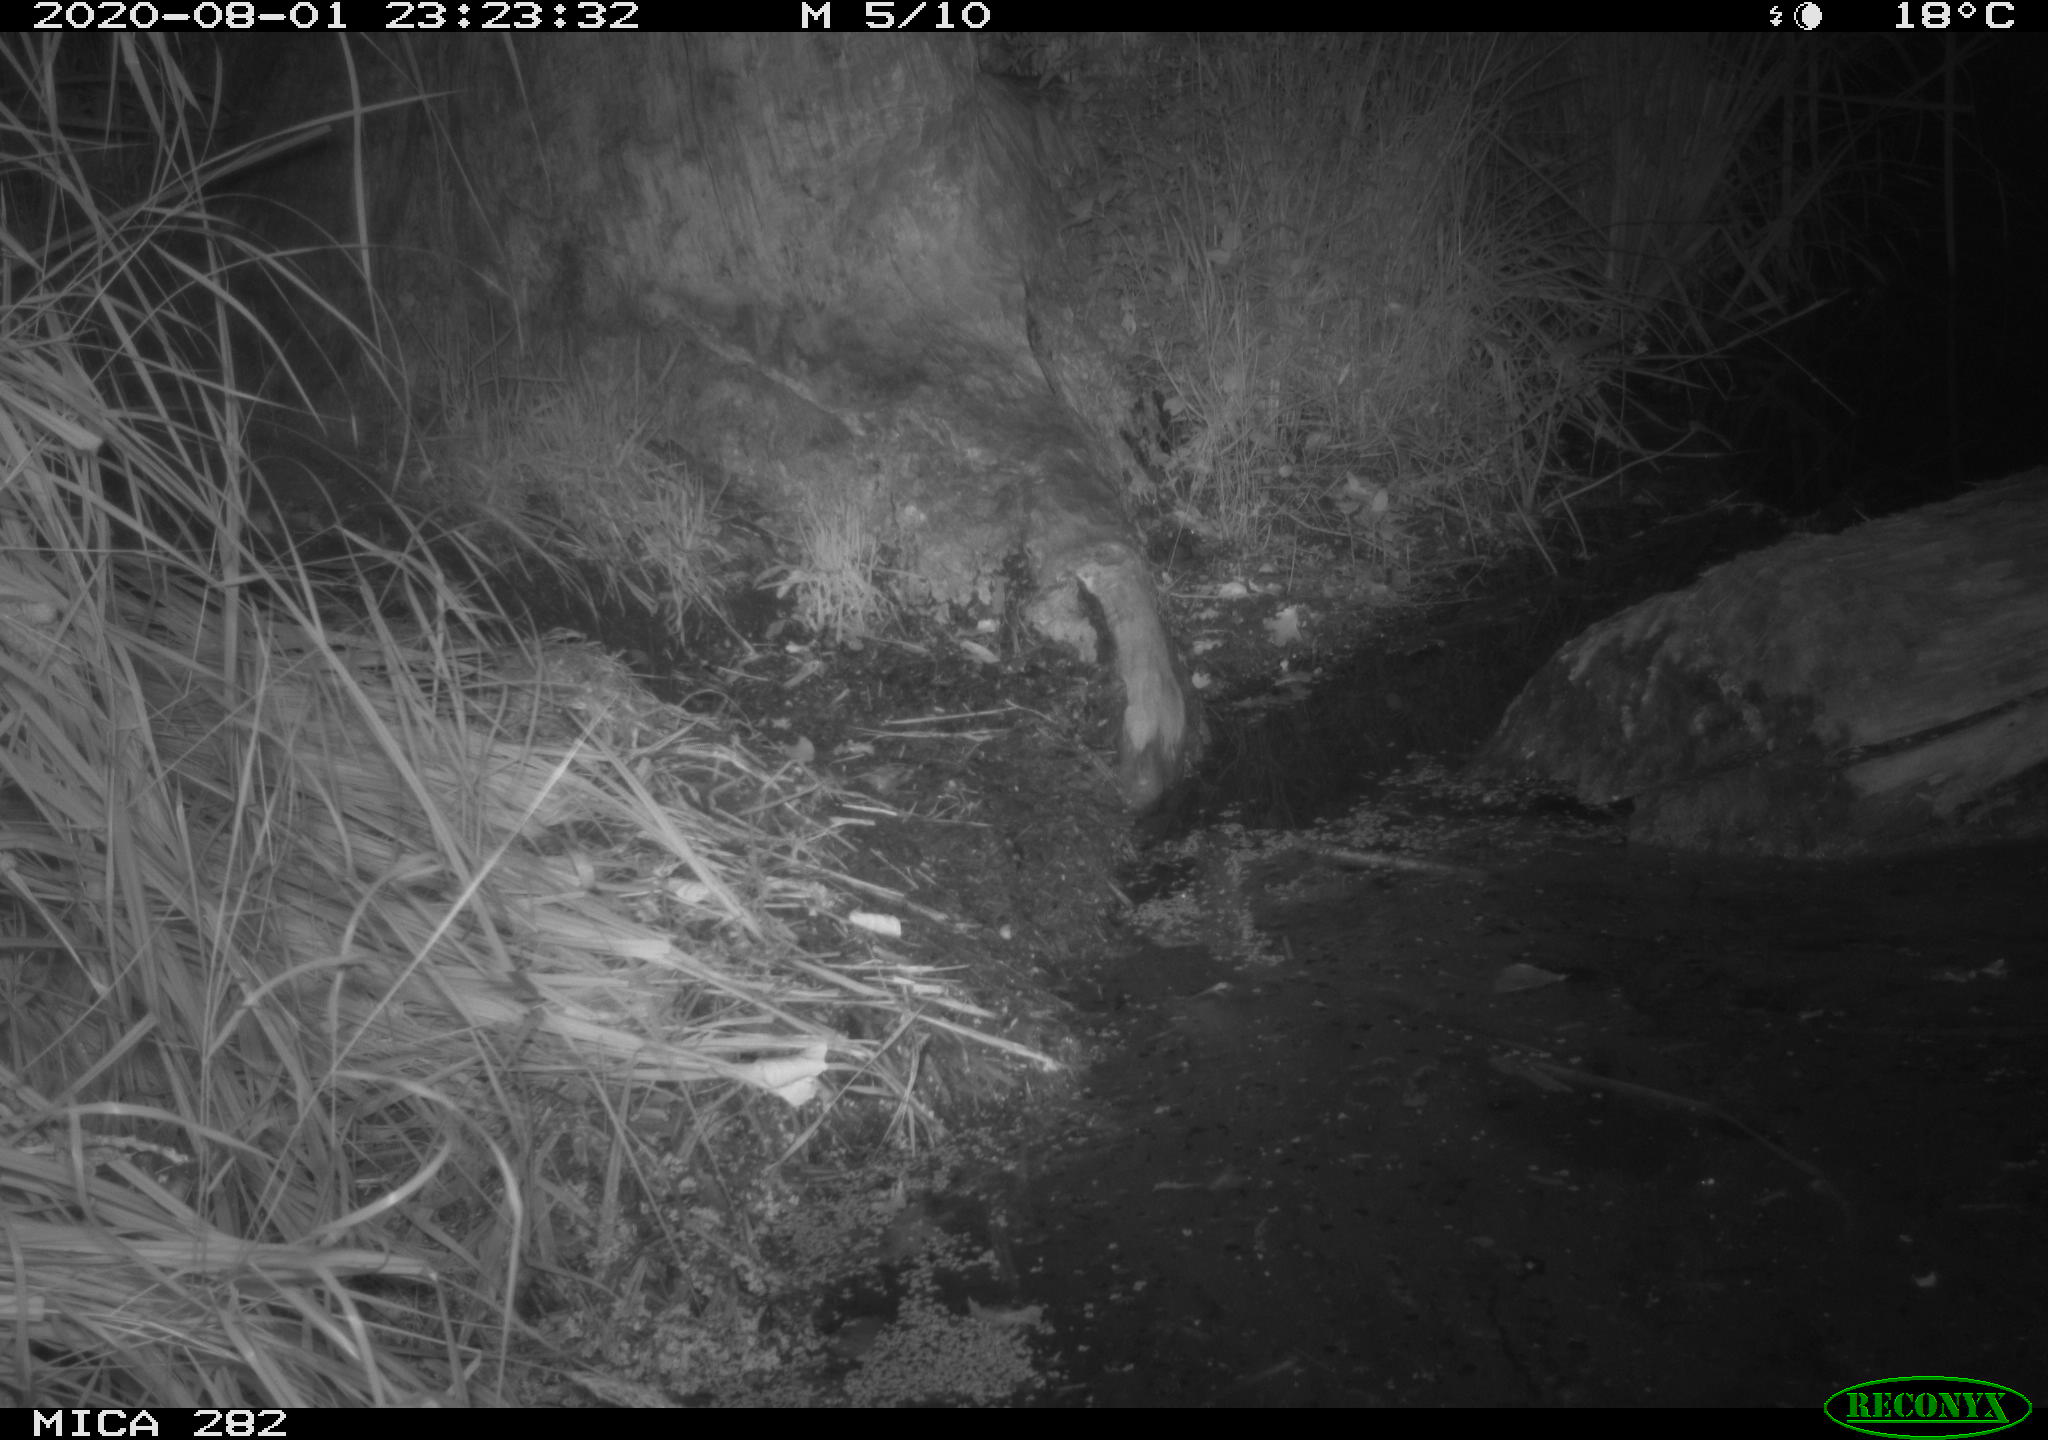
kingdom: Animalia
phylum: Chordata
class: Mammalia
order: Carnivora
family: Canidae
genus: Vulpes
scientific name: Vulpes vulpes
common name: Red fox
